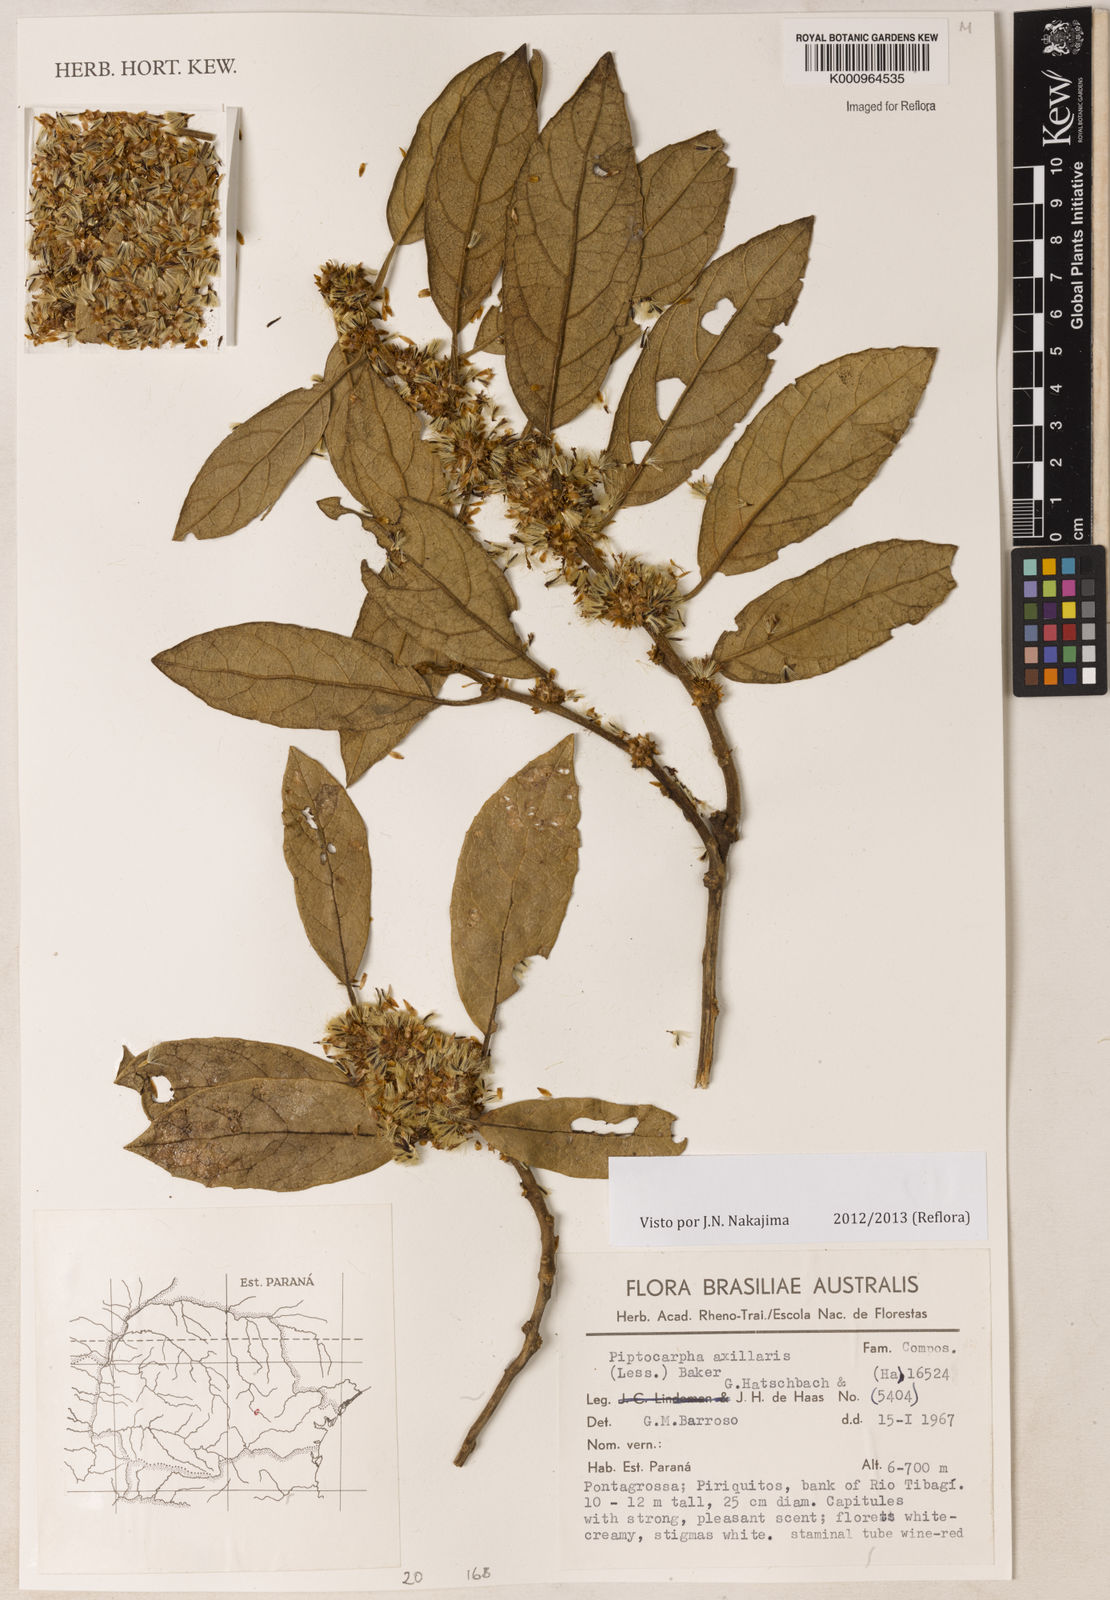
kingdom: Plantae
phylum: Tracheophyta
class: Magnoliopsida
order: Asterales
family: Asteraceae
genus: Piptocarpha
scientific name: Piptocarpha axillaris
